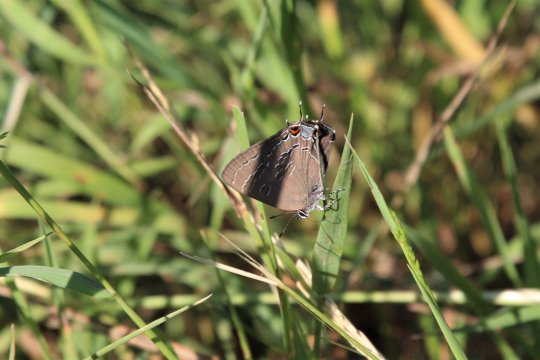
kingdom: Animalia
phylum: Arthropoda
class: Insecta
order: Lepidoptera
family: Lycaenidae
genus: Satyrium
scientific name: Satyrium calanus
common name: Banded Hairstreak
